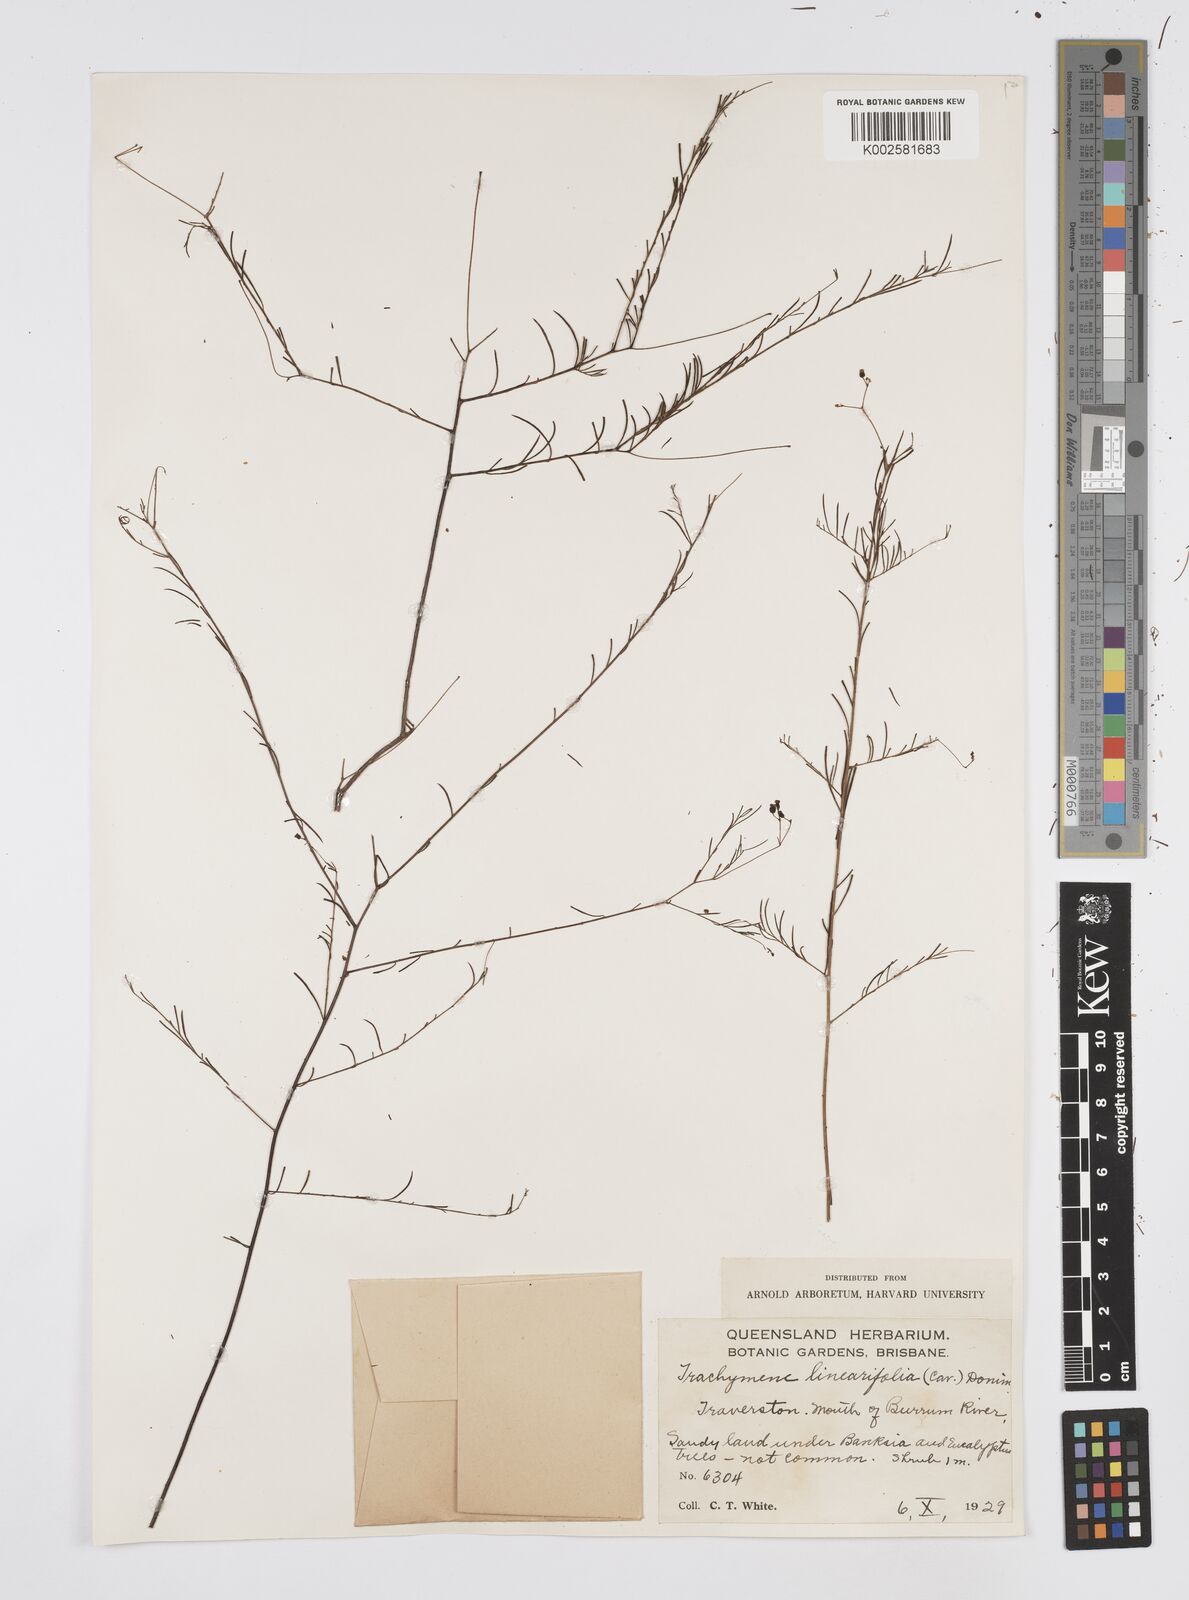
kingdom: Plantae
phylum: Tracheophyta
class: Magnoliopsida
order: Apiales
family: Apiaceae
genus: Platysace
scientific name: Platysace linearifolia
